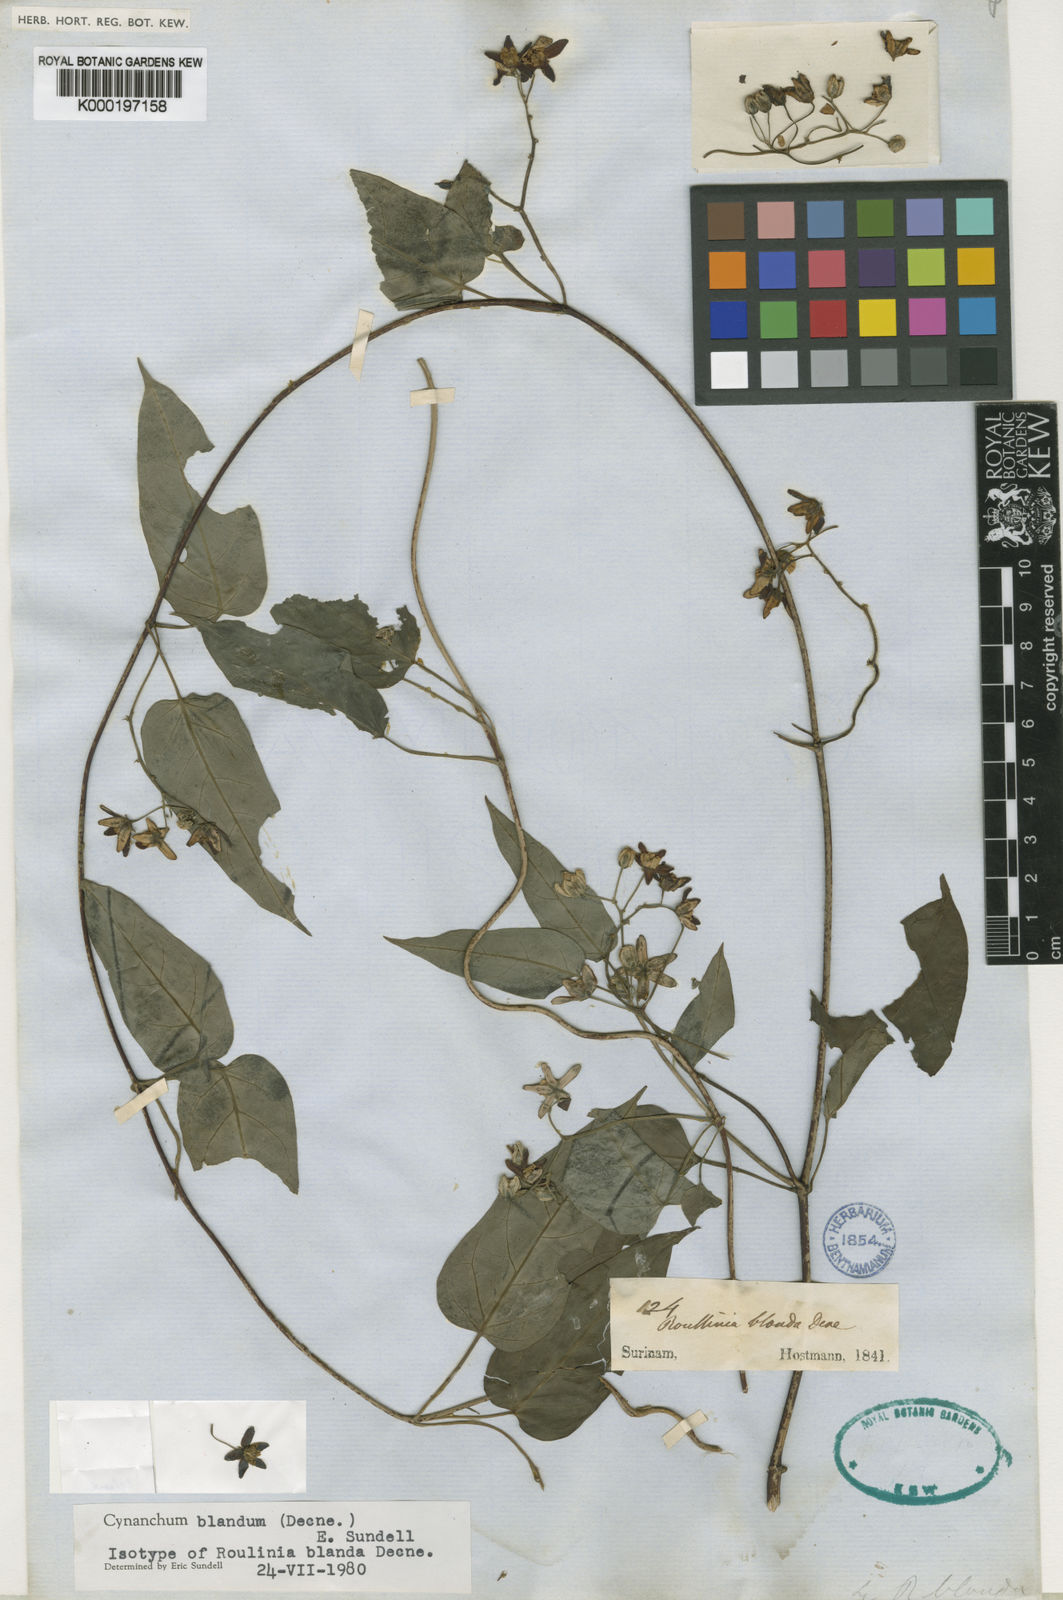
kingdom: Plantae
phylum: Tracheophyta
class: Magnoliopsida
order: Gentianales
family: Apocynaceae
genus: Cynanchum
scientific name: Cynanchum blandum
